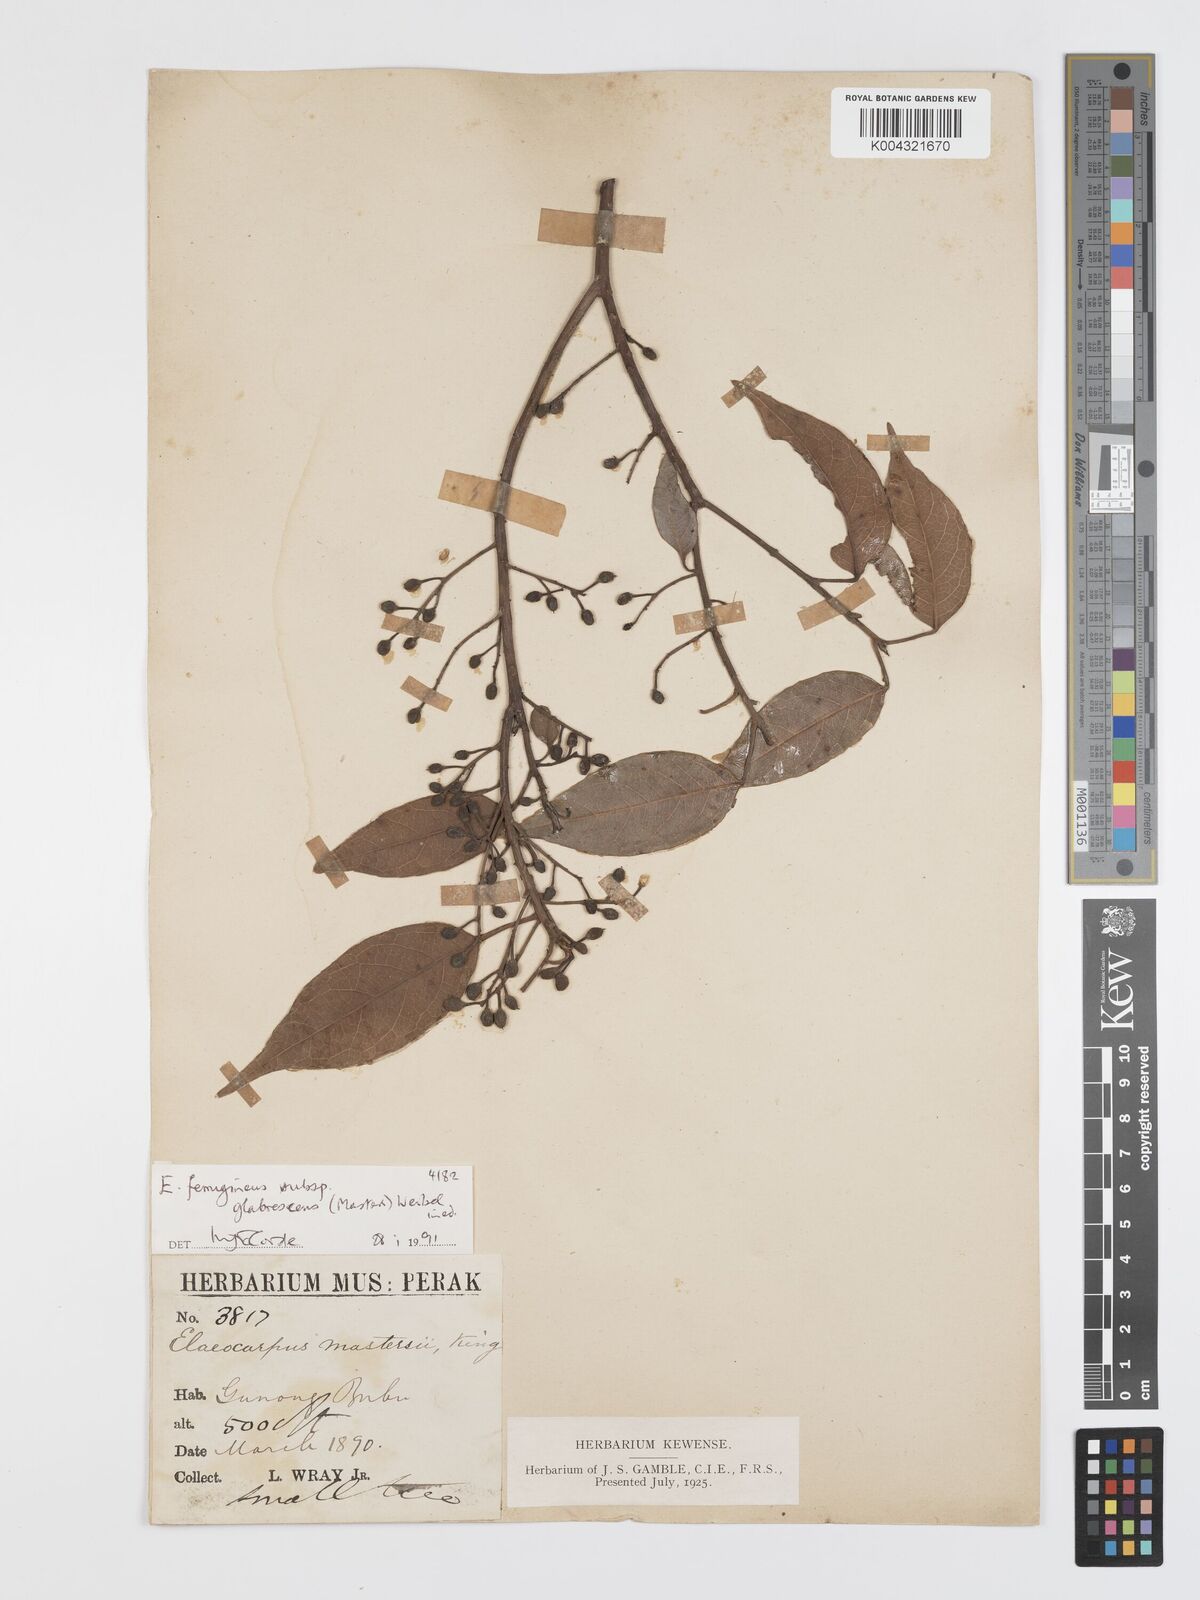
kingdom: Plantae
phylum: Tracheophyta
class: Magnoliopsida
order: Oxalidales
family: Elaeocarpaceae
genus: Elaeocarpus
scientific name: Elaeocarpus ferrugineus
